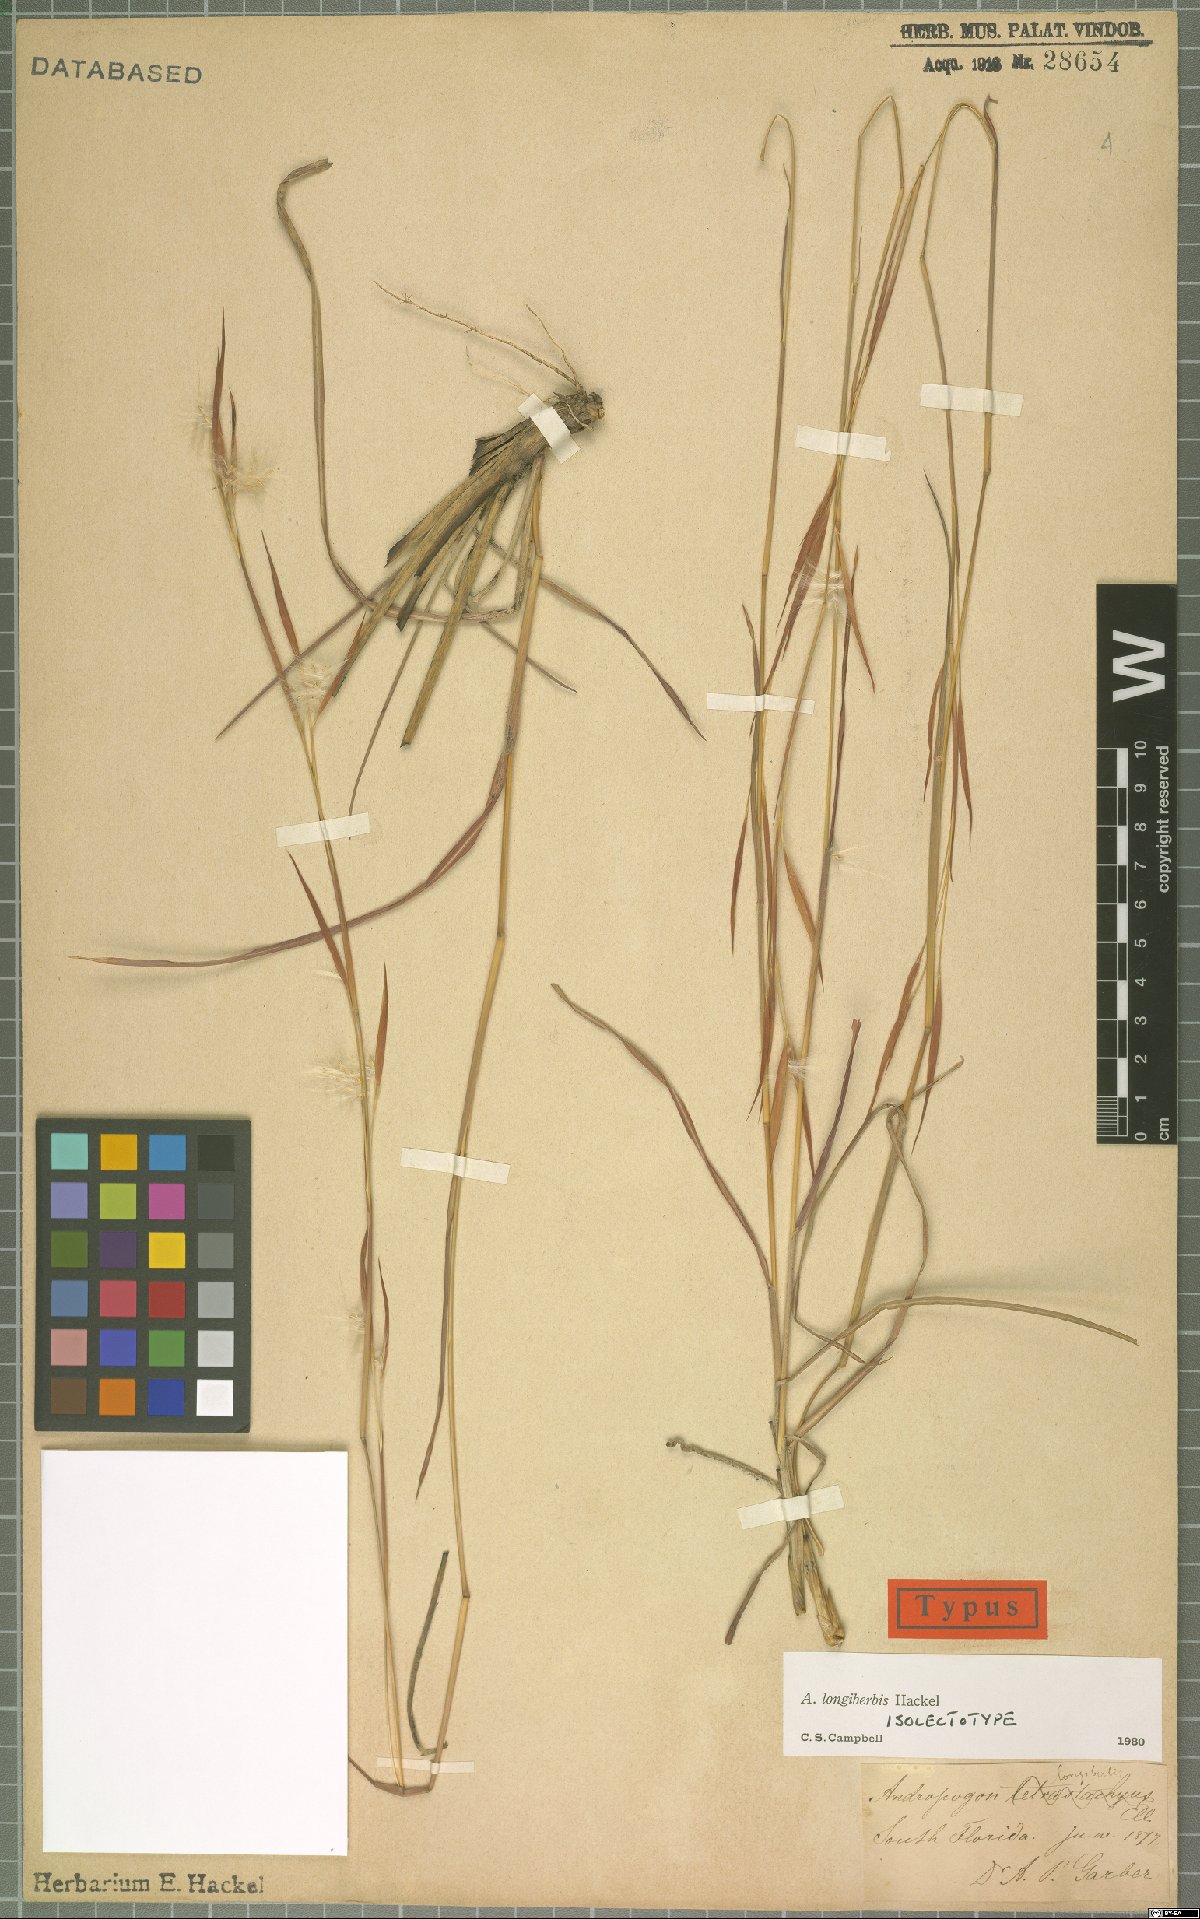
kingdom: Plantae
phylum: Tracheophyta
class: Liliopsida
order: Poales
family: Poaceae
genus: Andropogon
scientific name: Andropogon longiberbis
